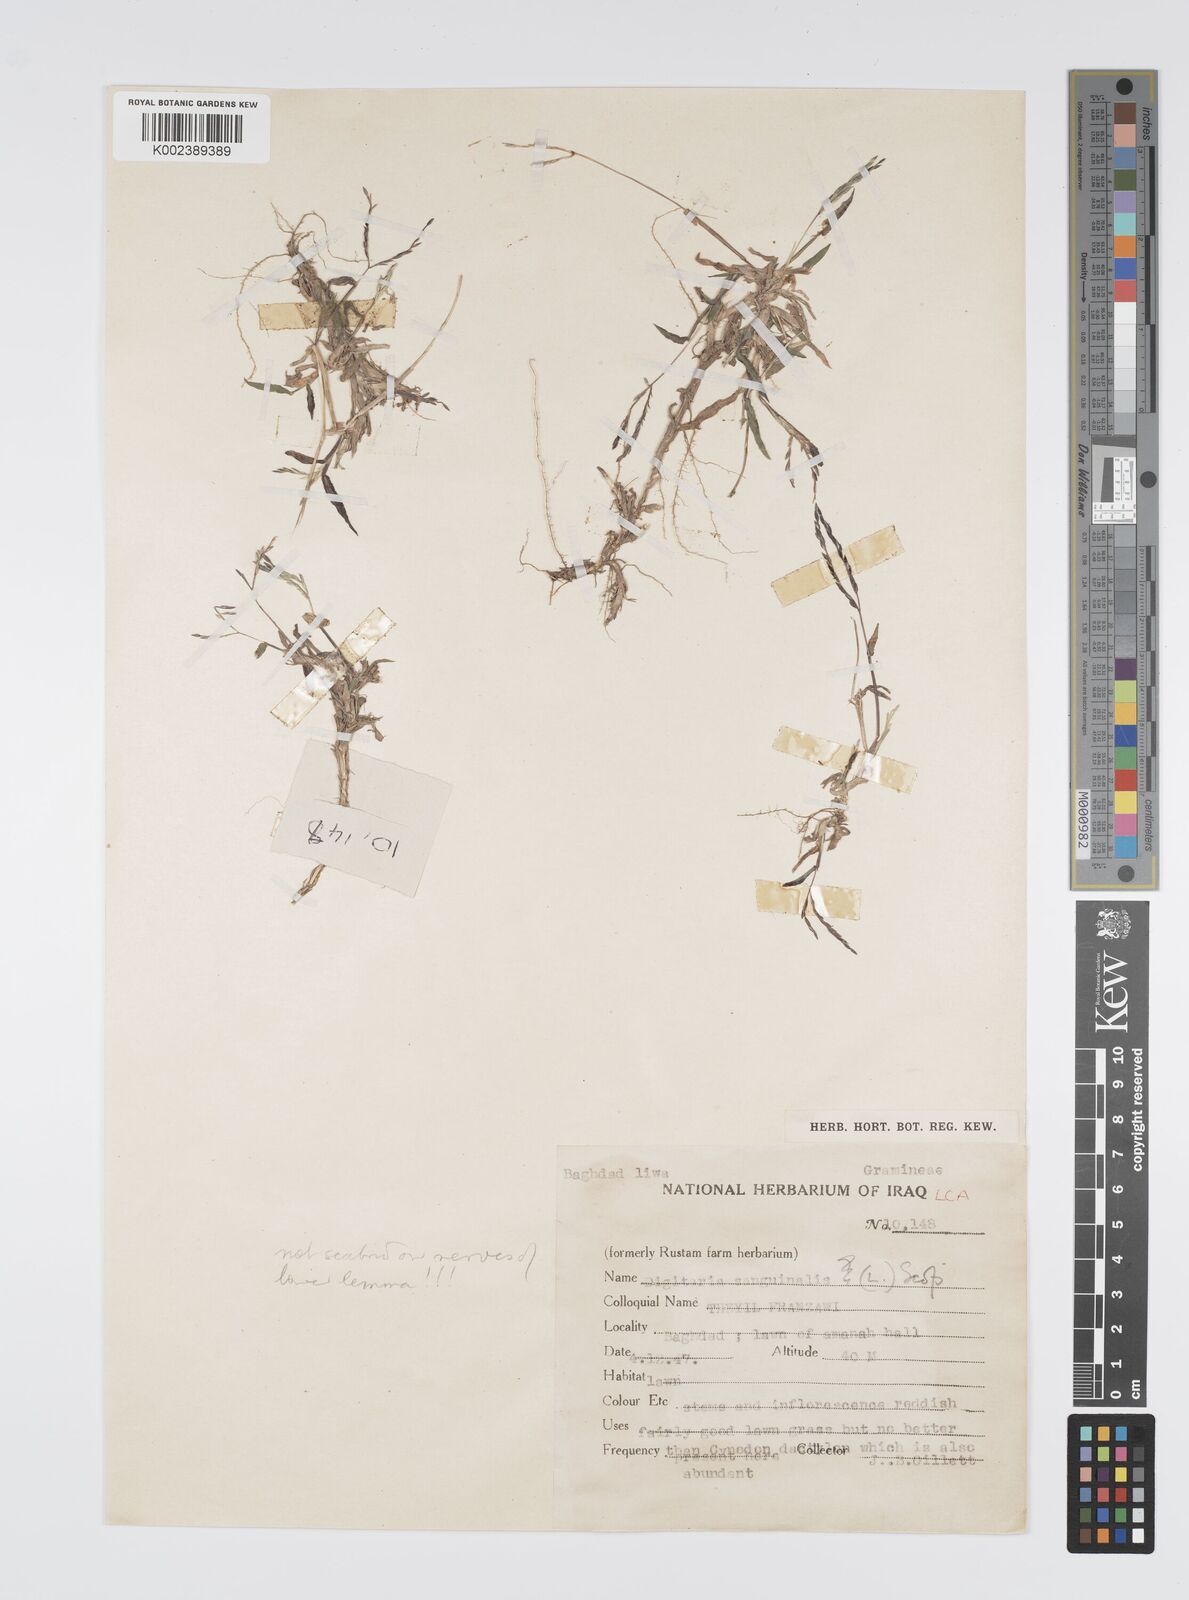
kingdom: Plantae
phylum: Tracheophyta
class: Liliopsida
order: Poales
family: Poaceae
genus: Digitaria
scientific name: Digitaria sanguinalis
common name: Hairy crabgrass
